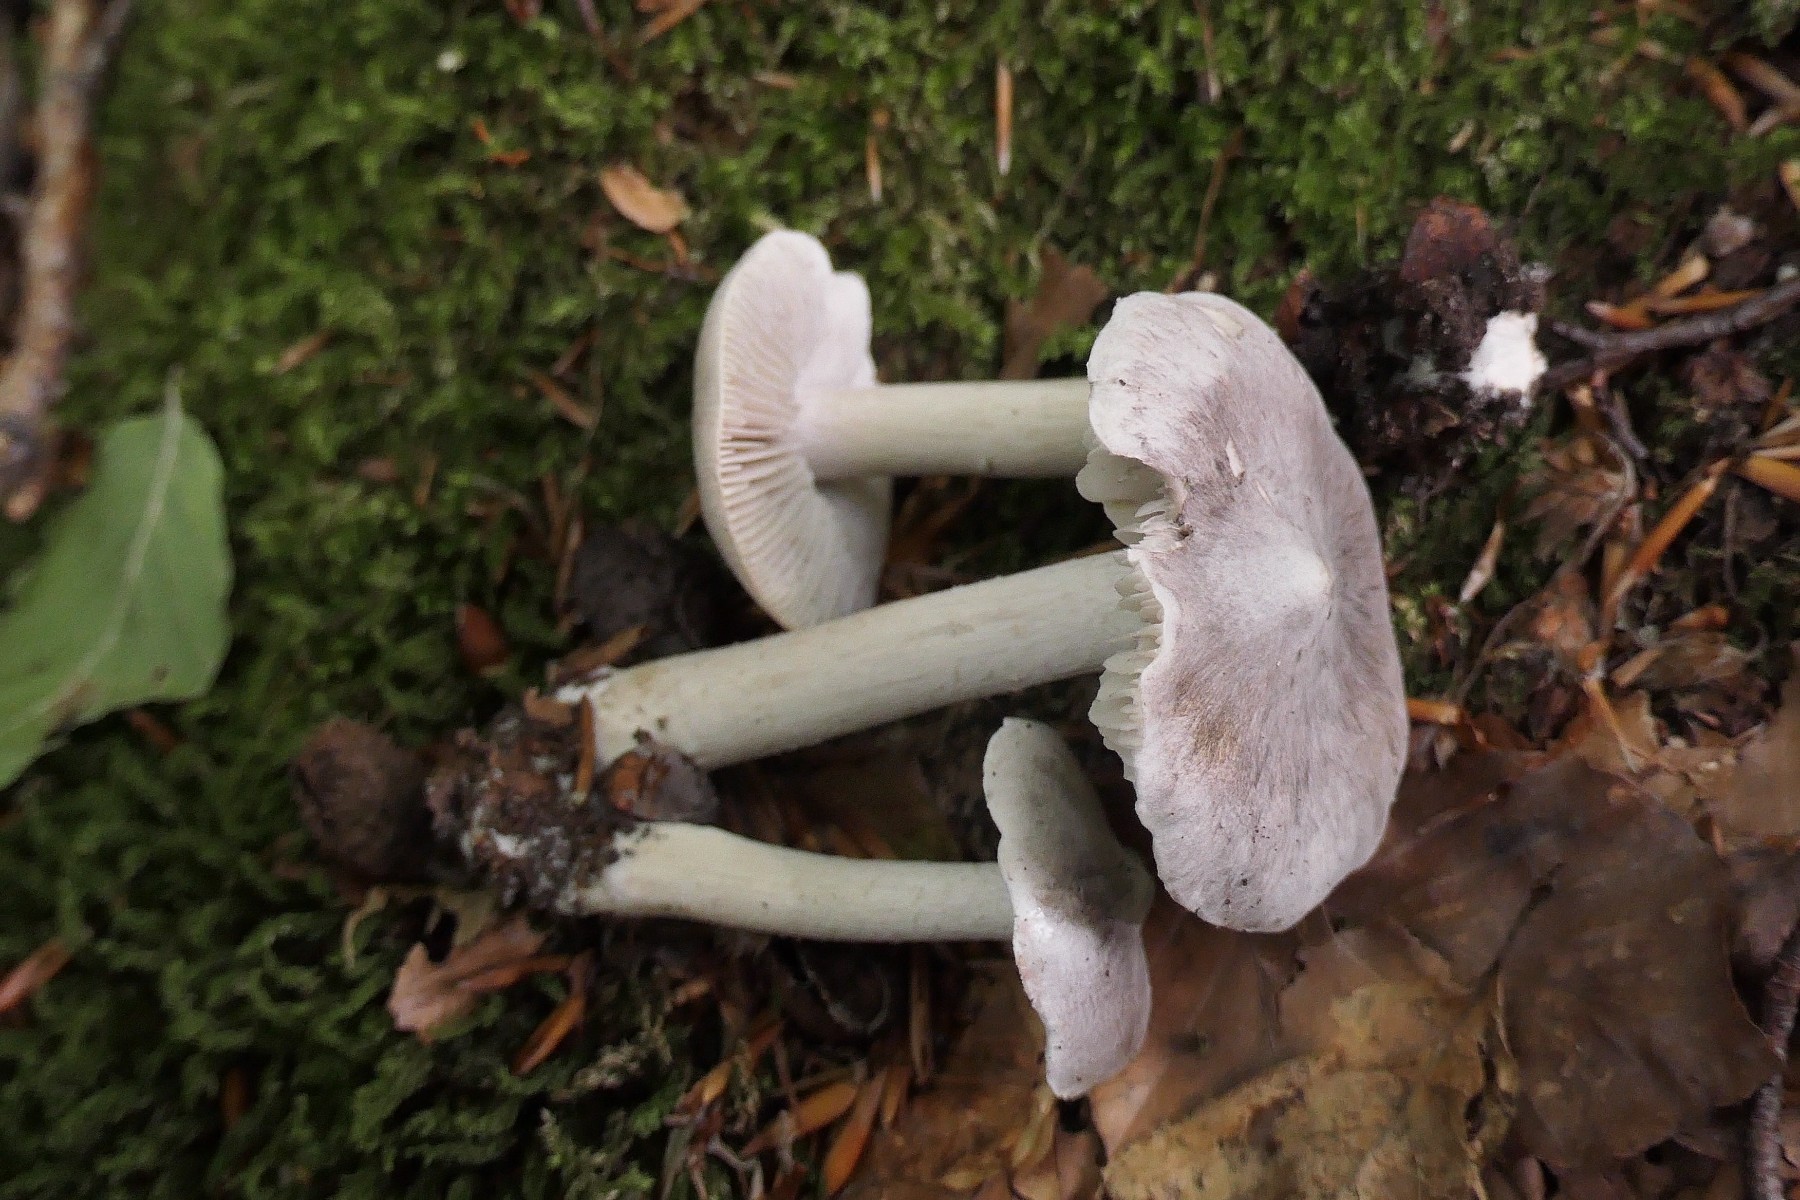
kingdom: Fungi
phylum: Basidiomycota
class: Agaricomycetes
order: Agaricales
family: Tricholomataceae
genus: Tricholoma
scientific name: Tricholoma argyraceum
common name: spids ridderhat
